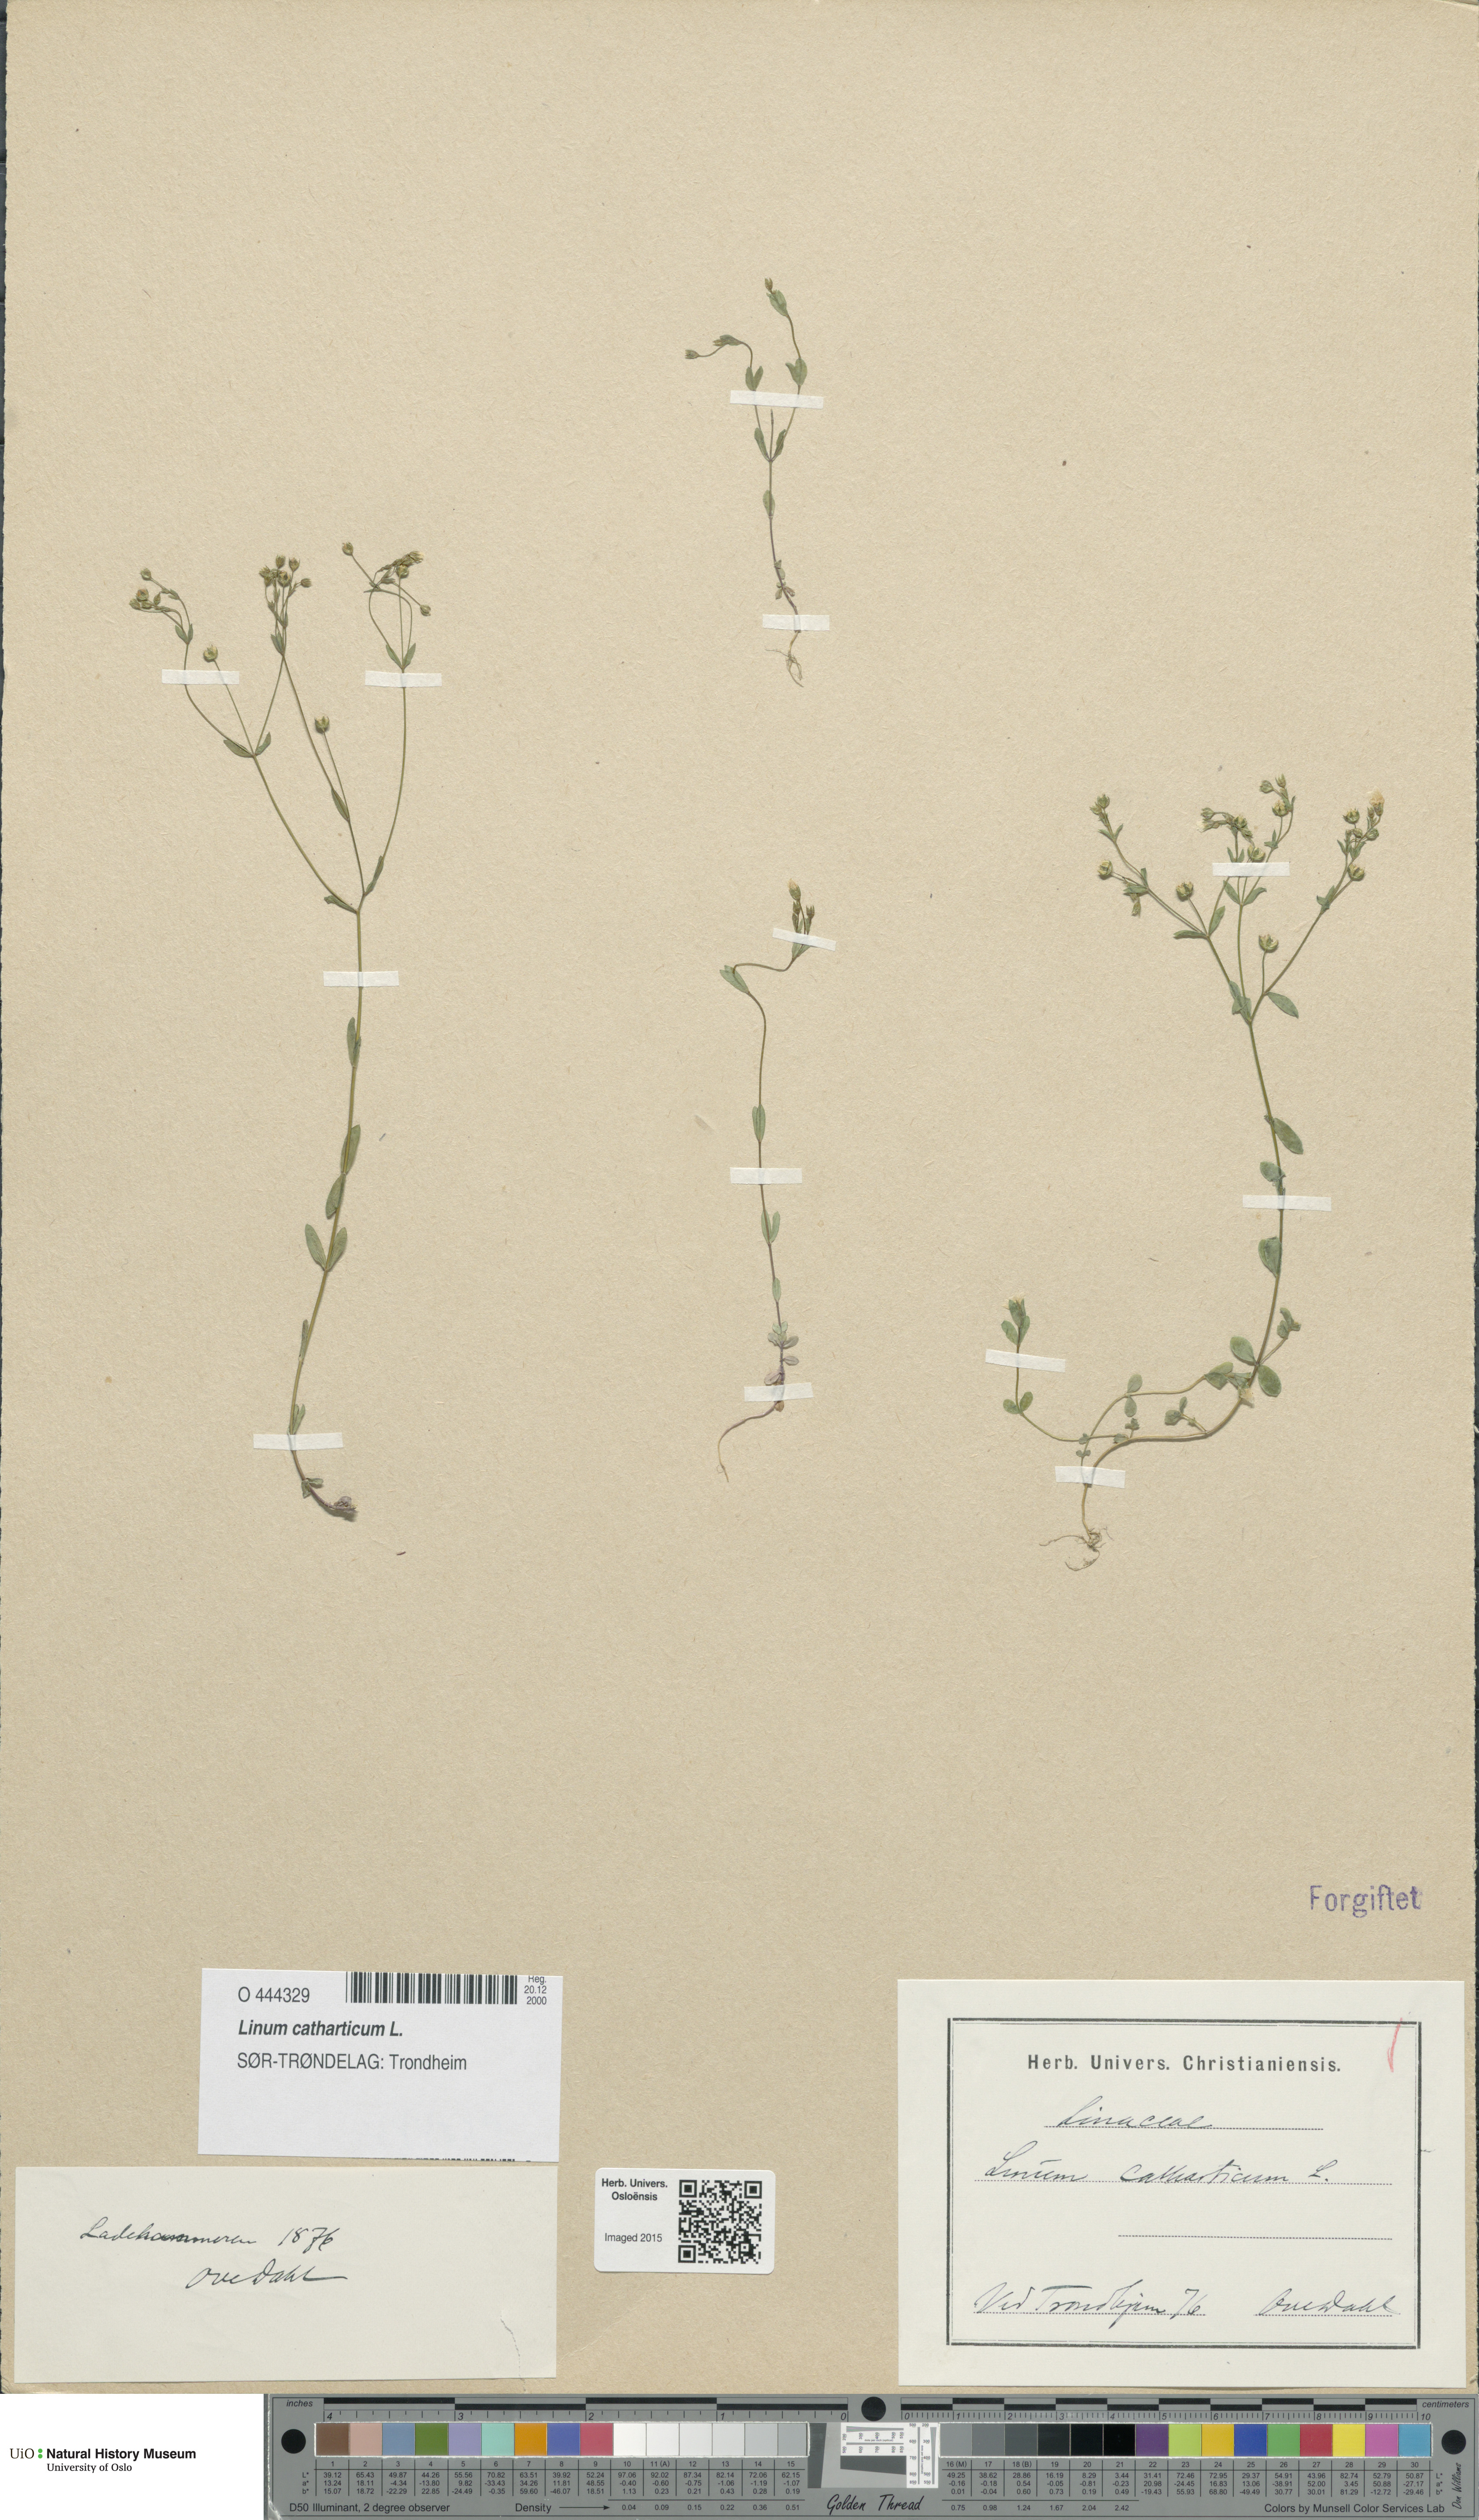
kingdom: Plantae
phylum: Tracheophyta
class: Magnoliopsida
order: Malpighiales
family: Linaceae
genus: Linum
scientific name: Linum catharticum
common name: Fairy flax
